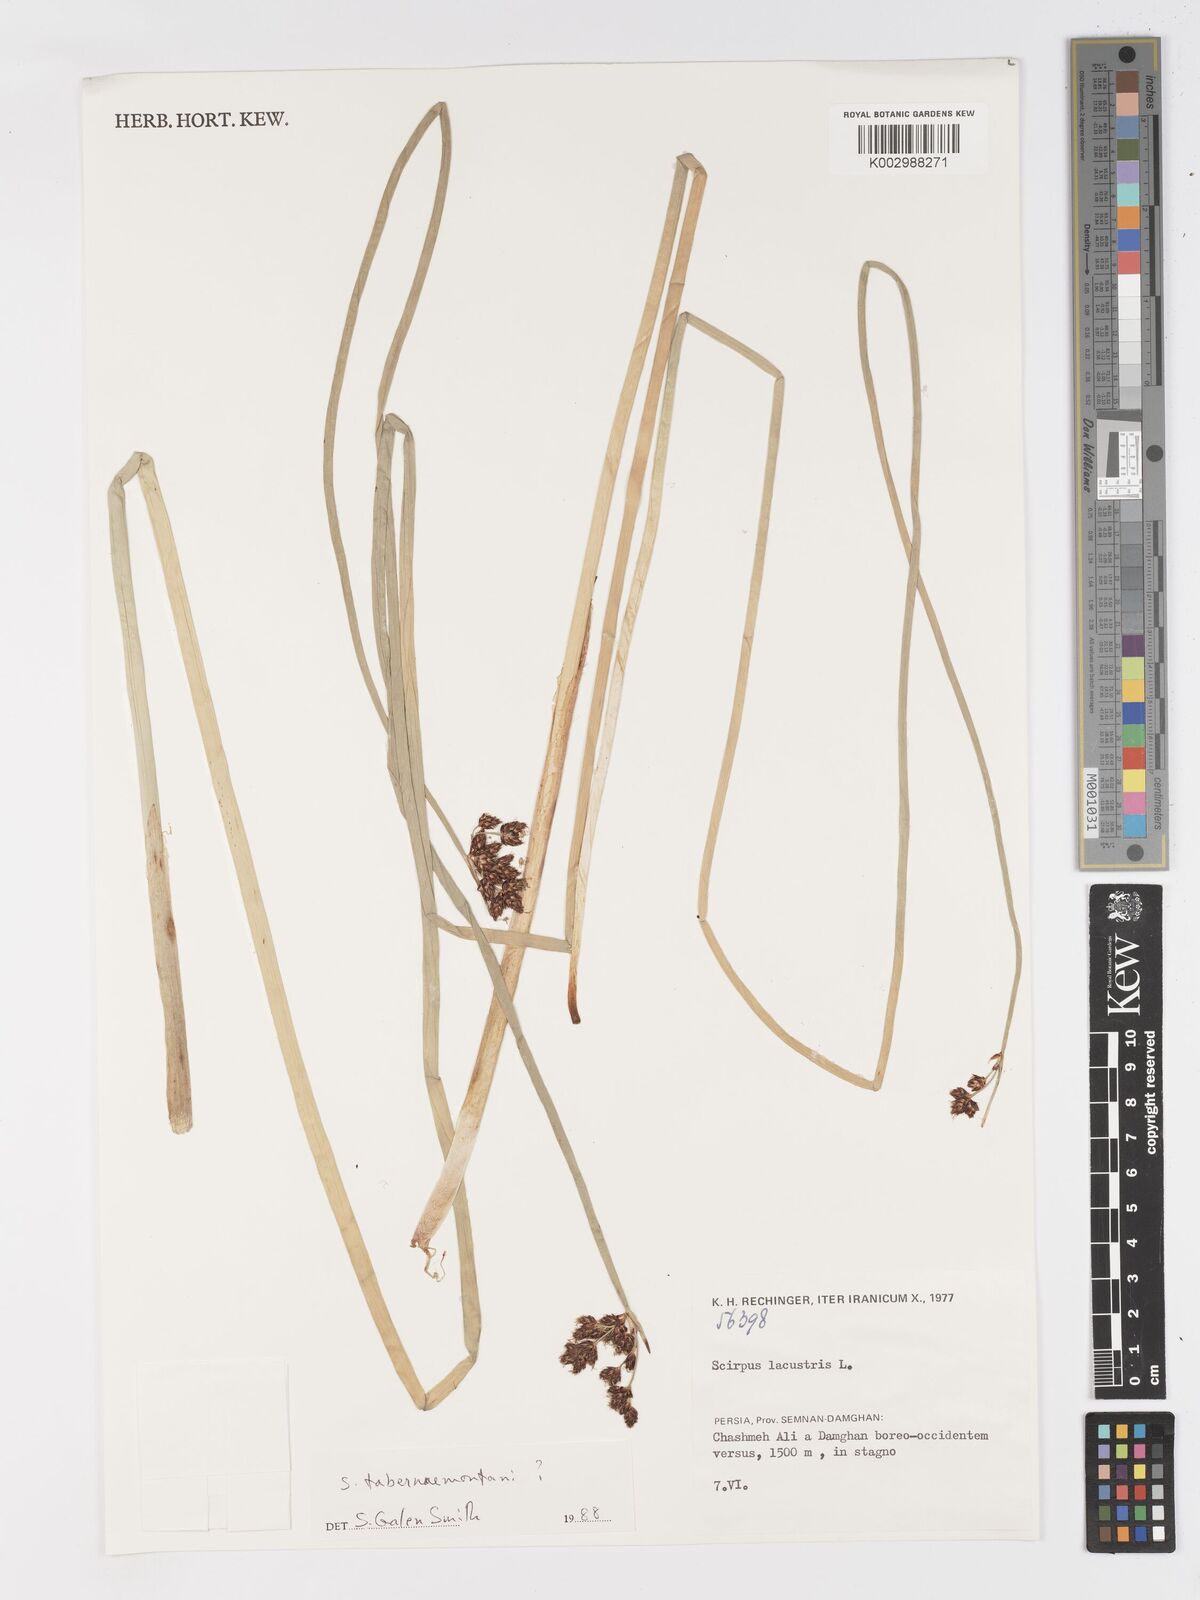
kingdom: Plantae
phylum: Tracheophyta
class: Liliopsida
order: Poales
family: Cyperaceae
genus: Schoenoplectus
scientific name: Schoenoplectus tabernaemontani
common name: Grey club-rush
